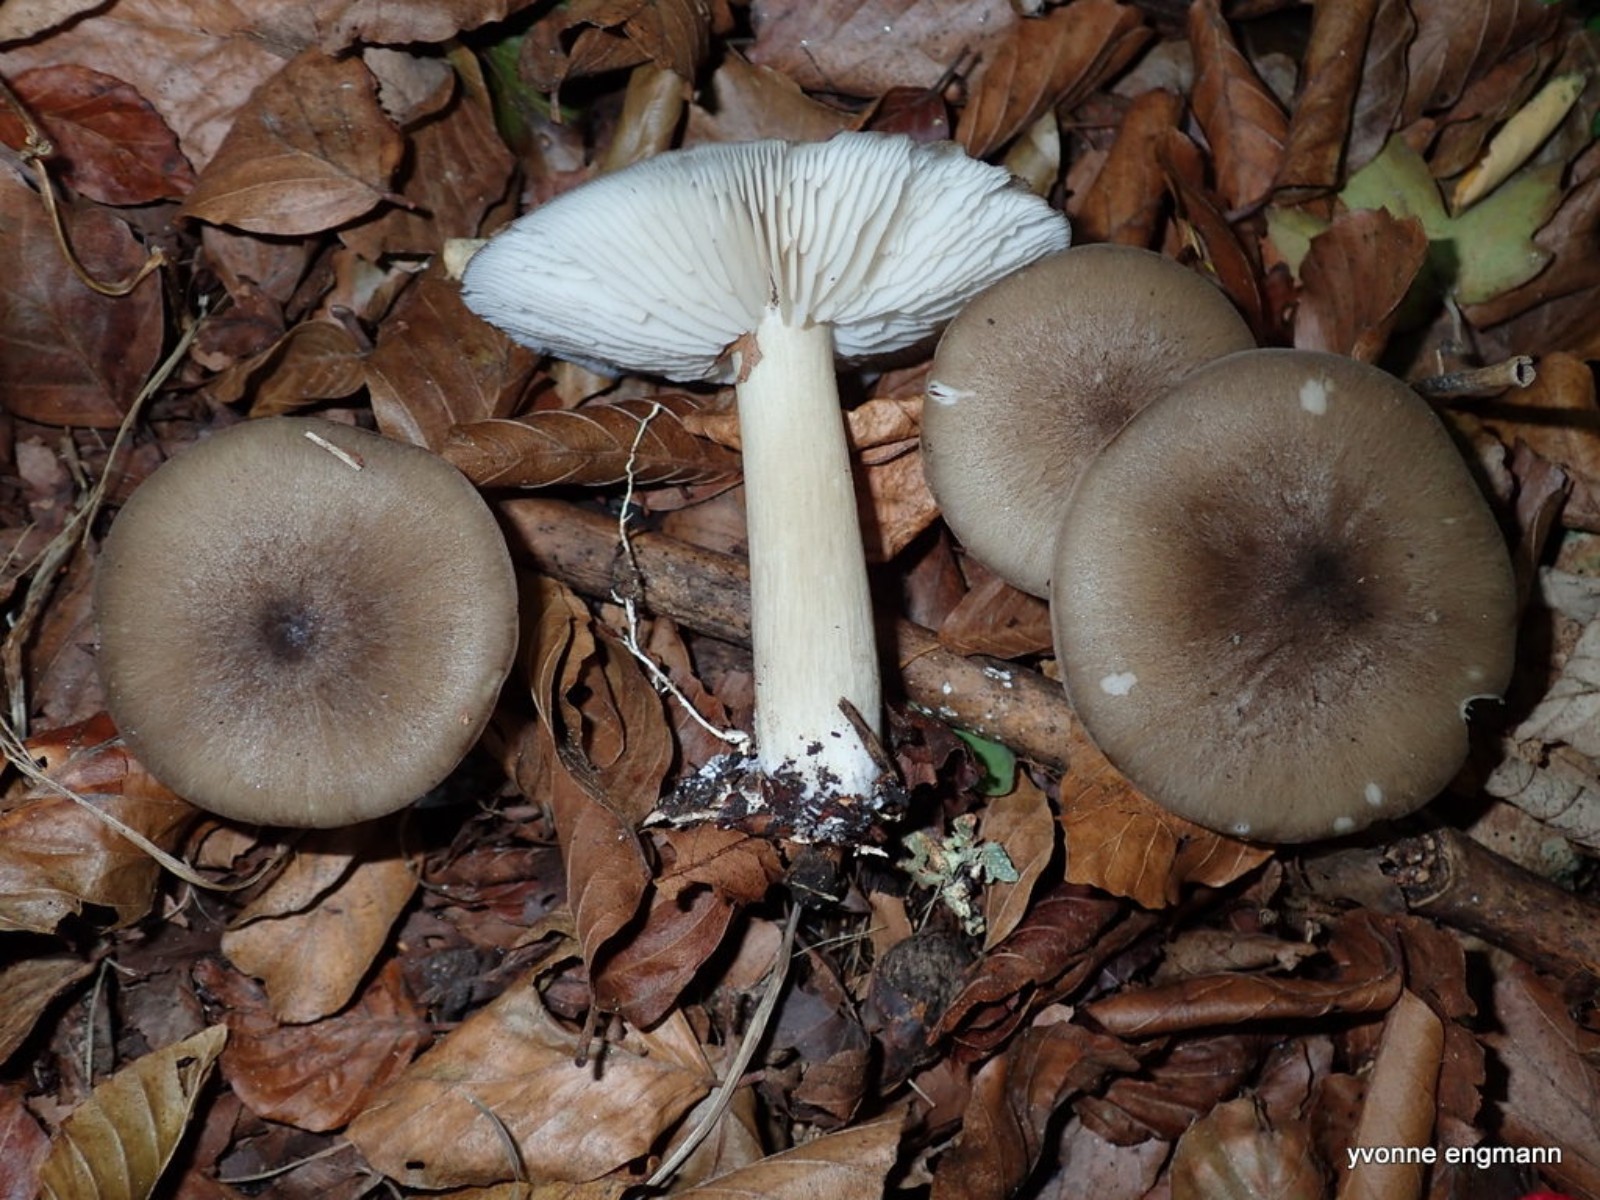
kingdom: Fungi
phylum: Basidiomycota
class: Agaricomycetes
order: Agaricales
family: Tricholomataceae
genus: Megacollybia
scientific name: Megacollybia platyphylla
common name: bredbladet væbnerhat
